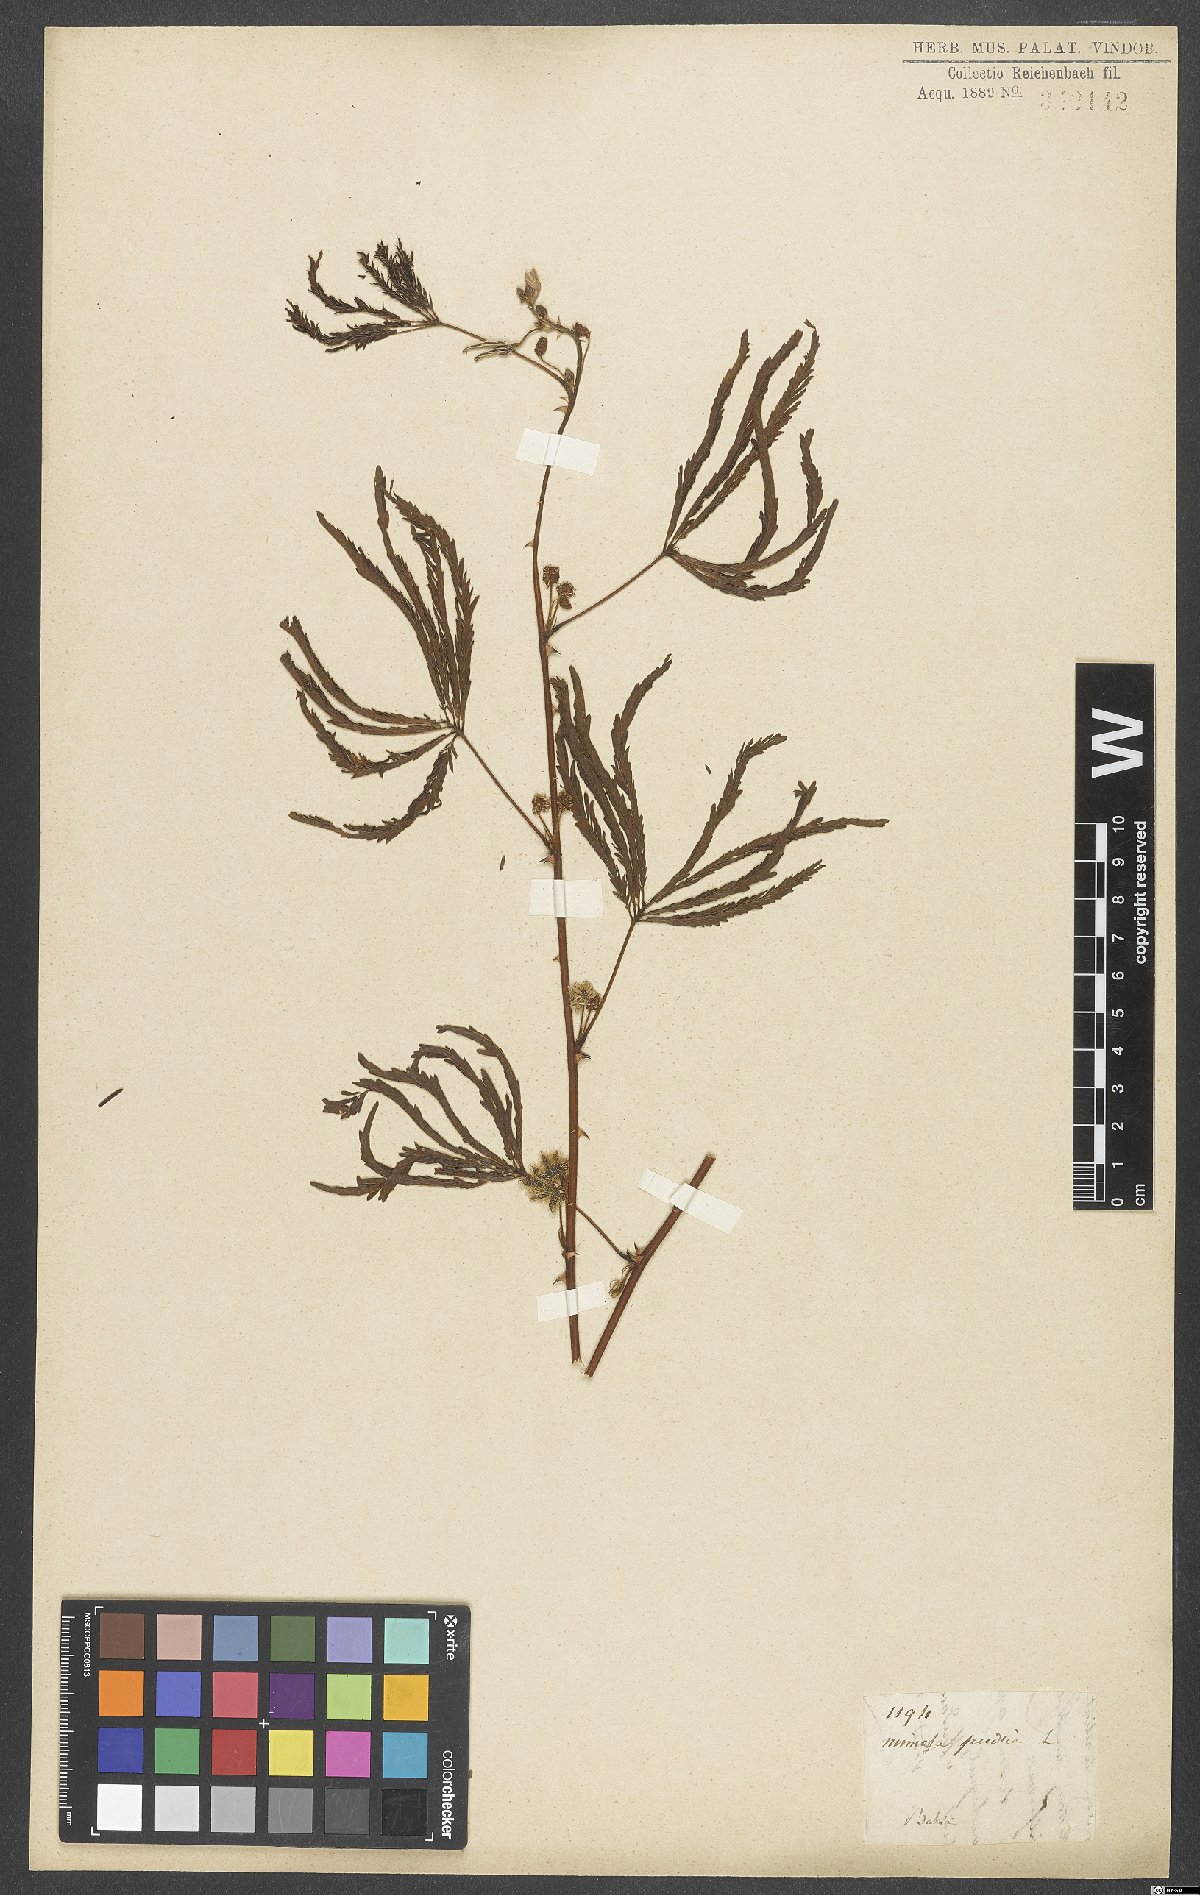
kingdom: Plantae
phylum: Tracheophyta
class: Magnoliopsida
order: Fabales
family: Fabaceae
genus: Mimosa
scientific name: Mimosa polydactyla
